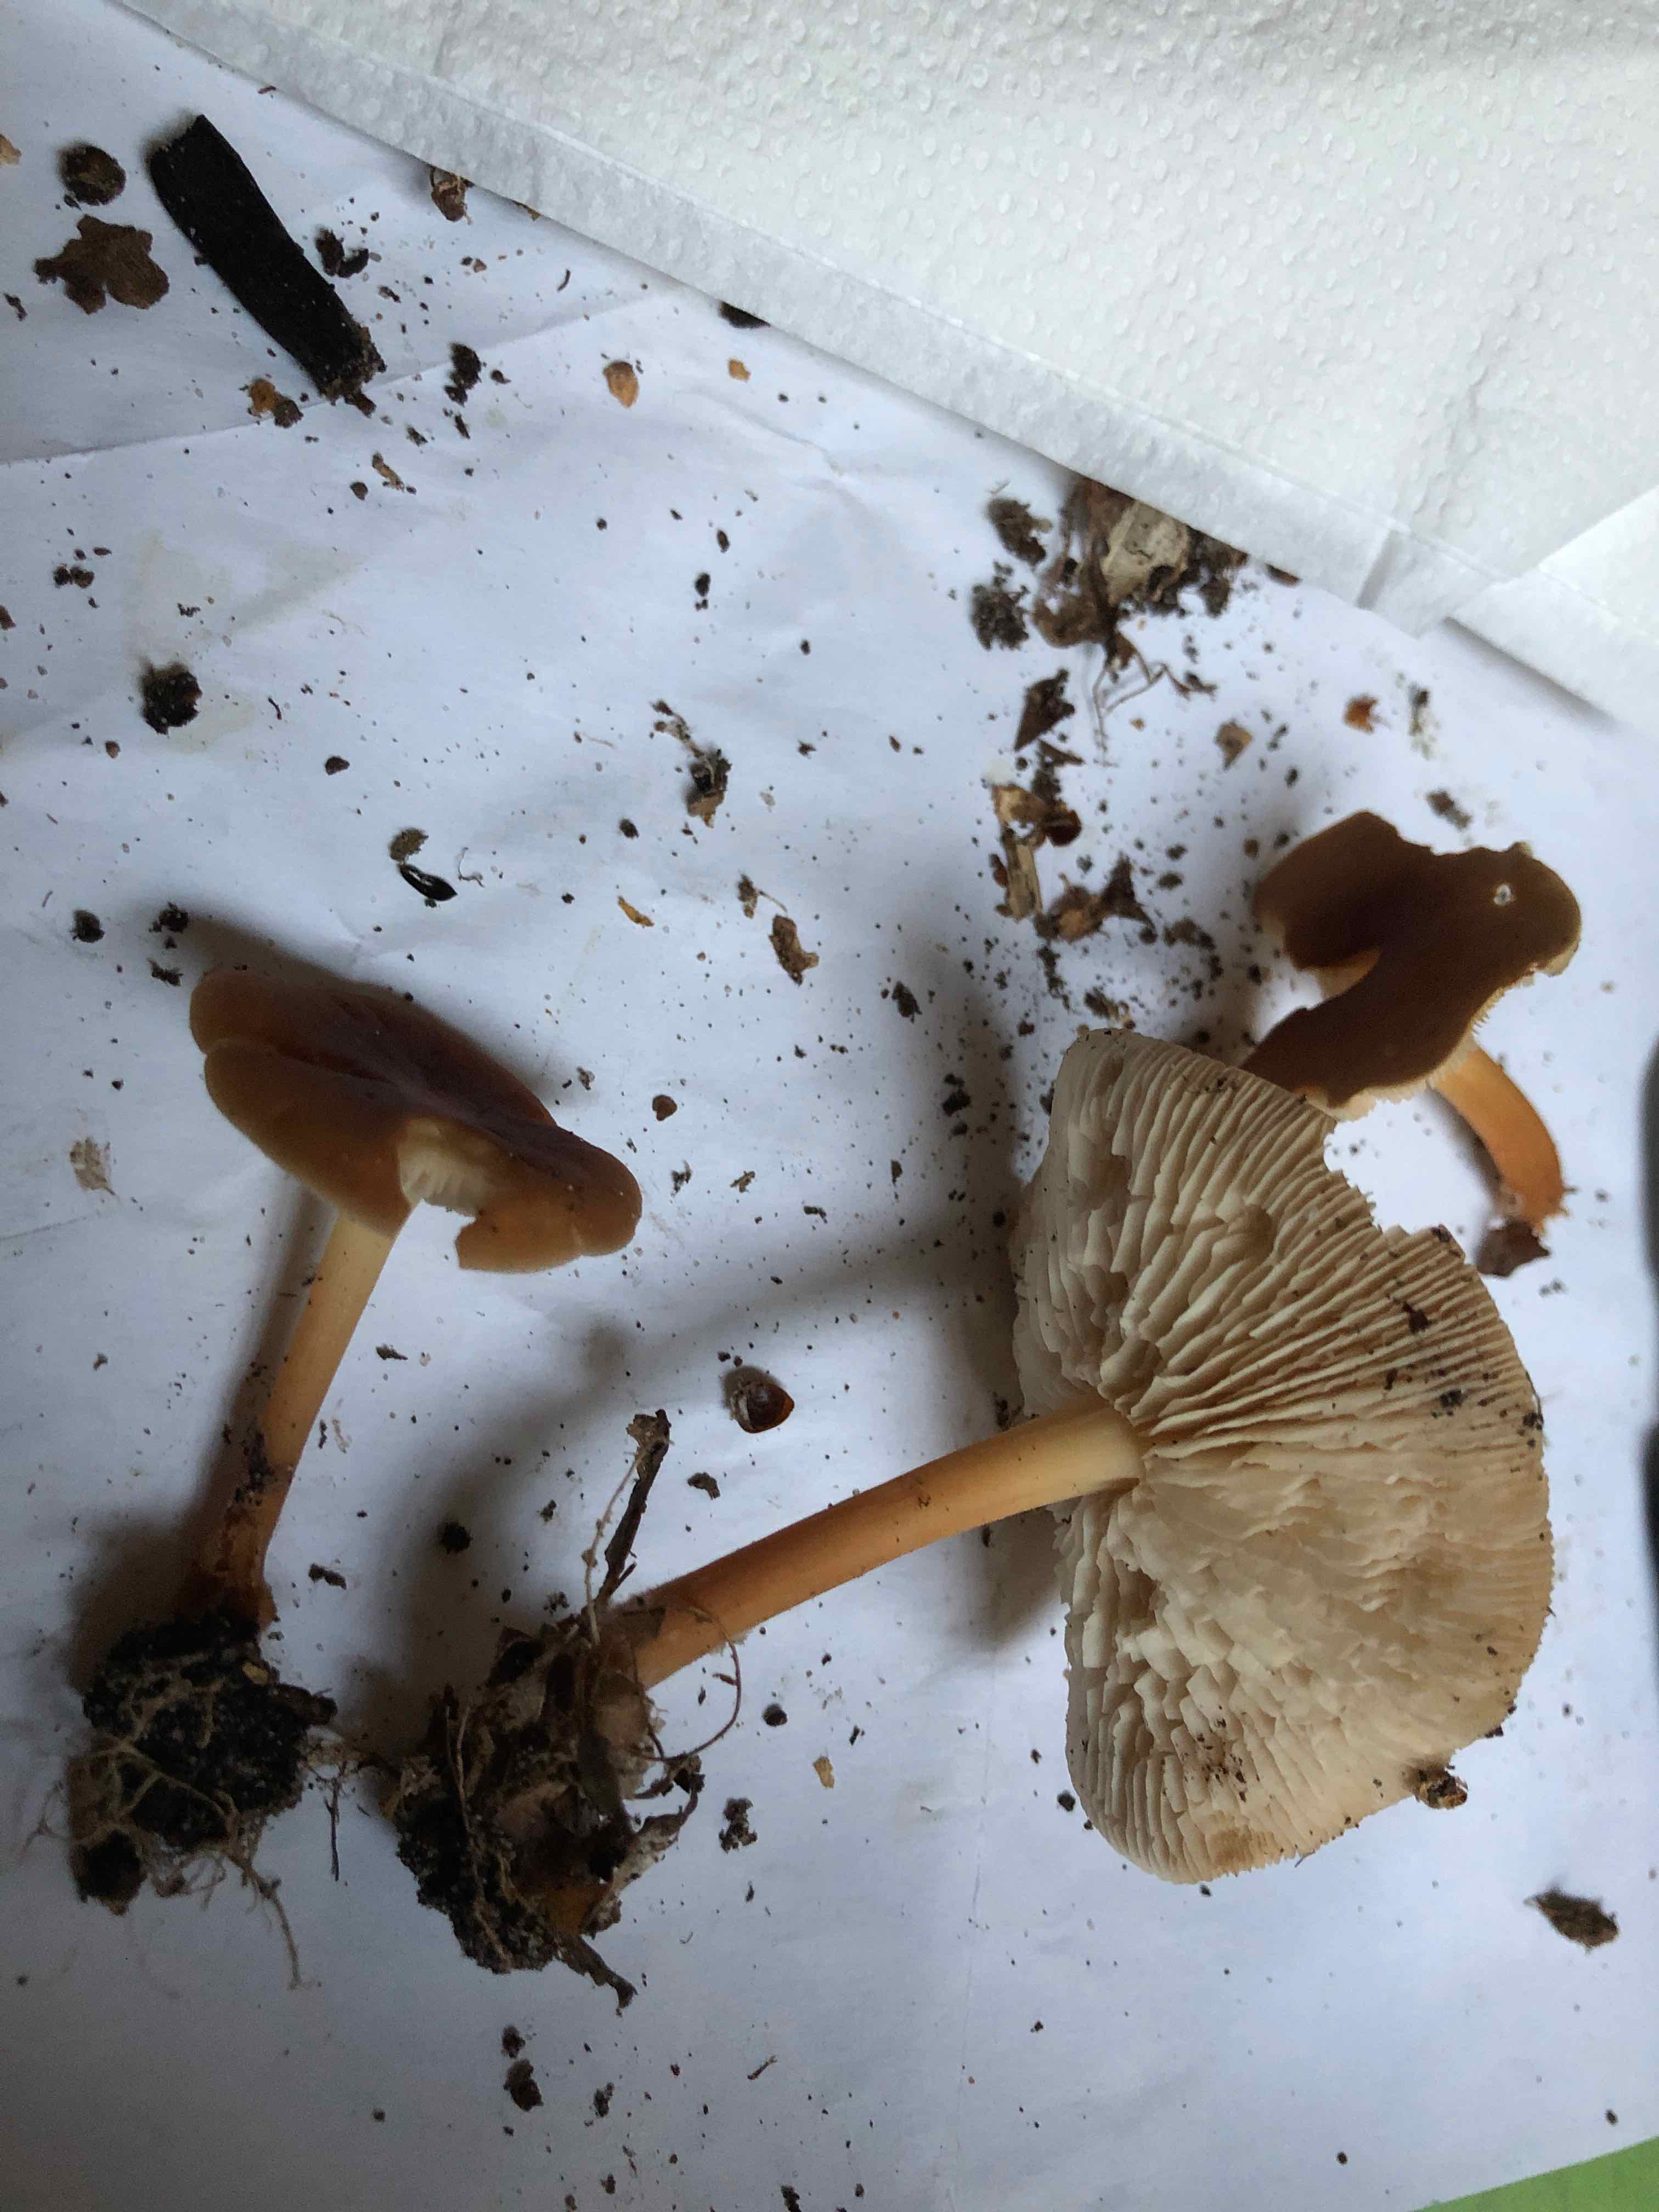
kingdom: Fungi
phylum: Basidiomycota
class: Agaricomycetes
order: Agaricales
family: Omphalotaceae
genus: Gymnopus
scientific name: Gymnopus
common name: fladhat
